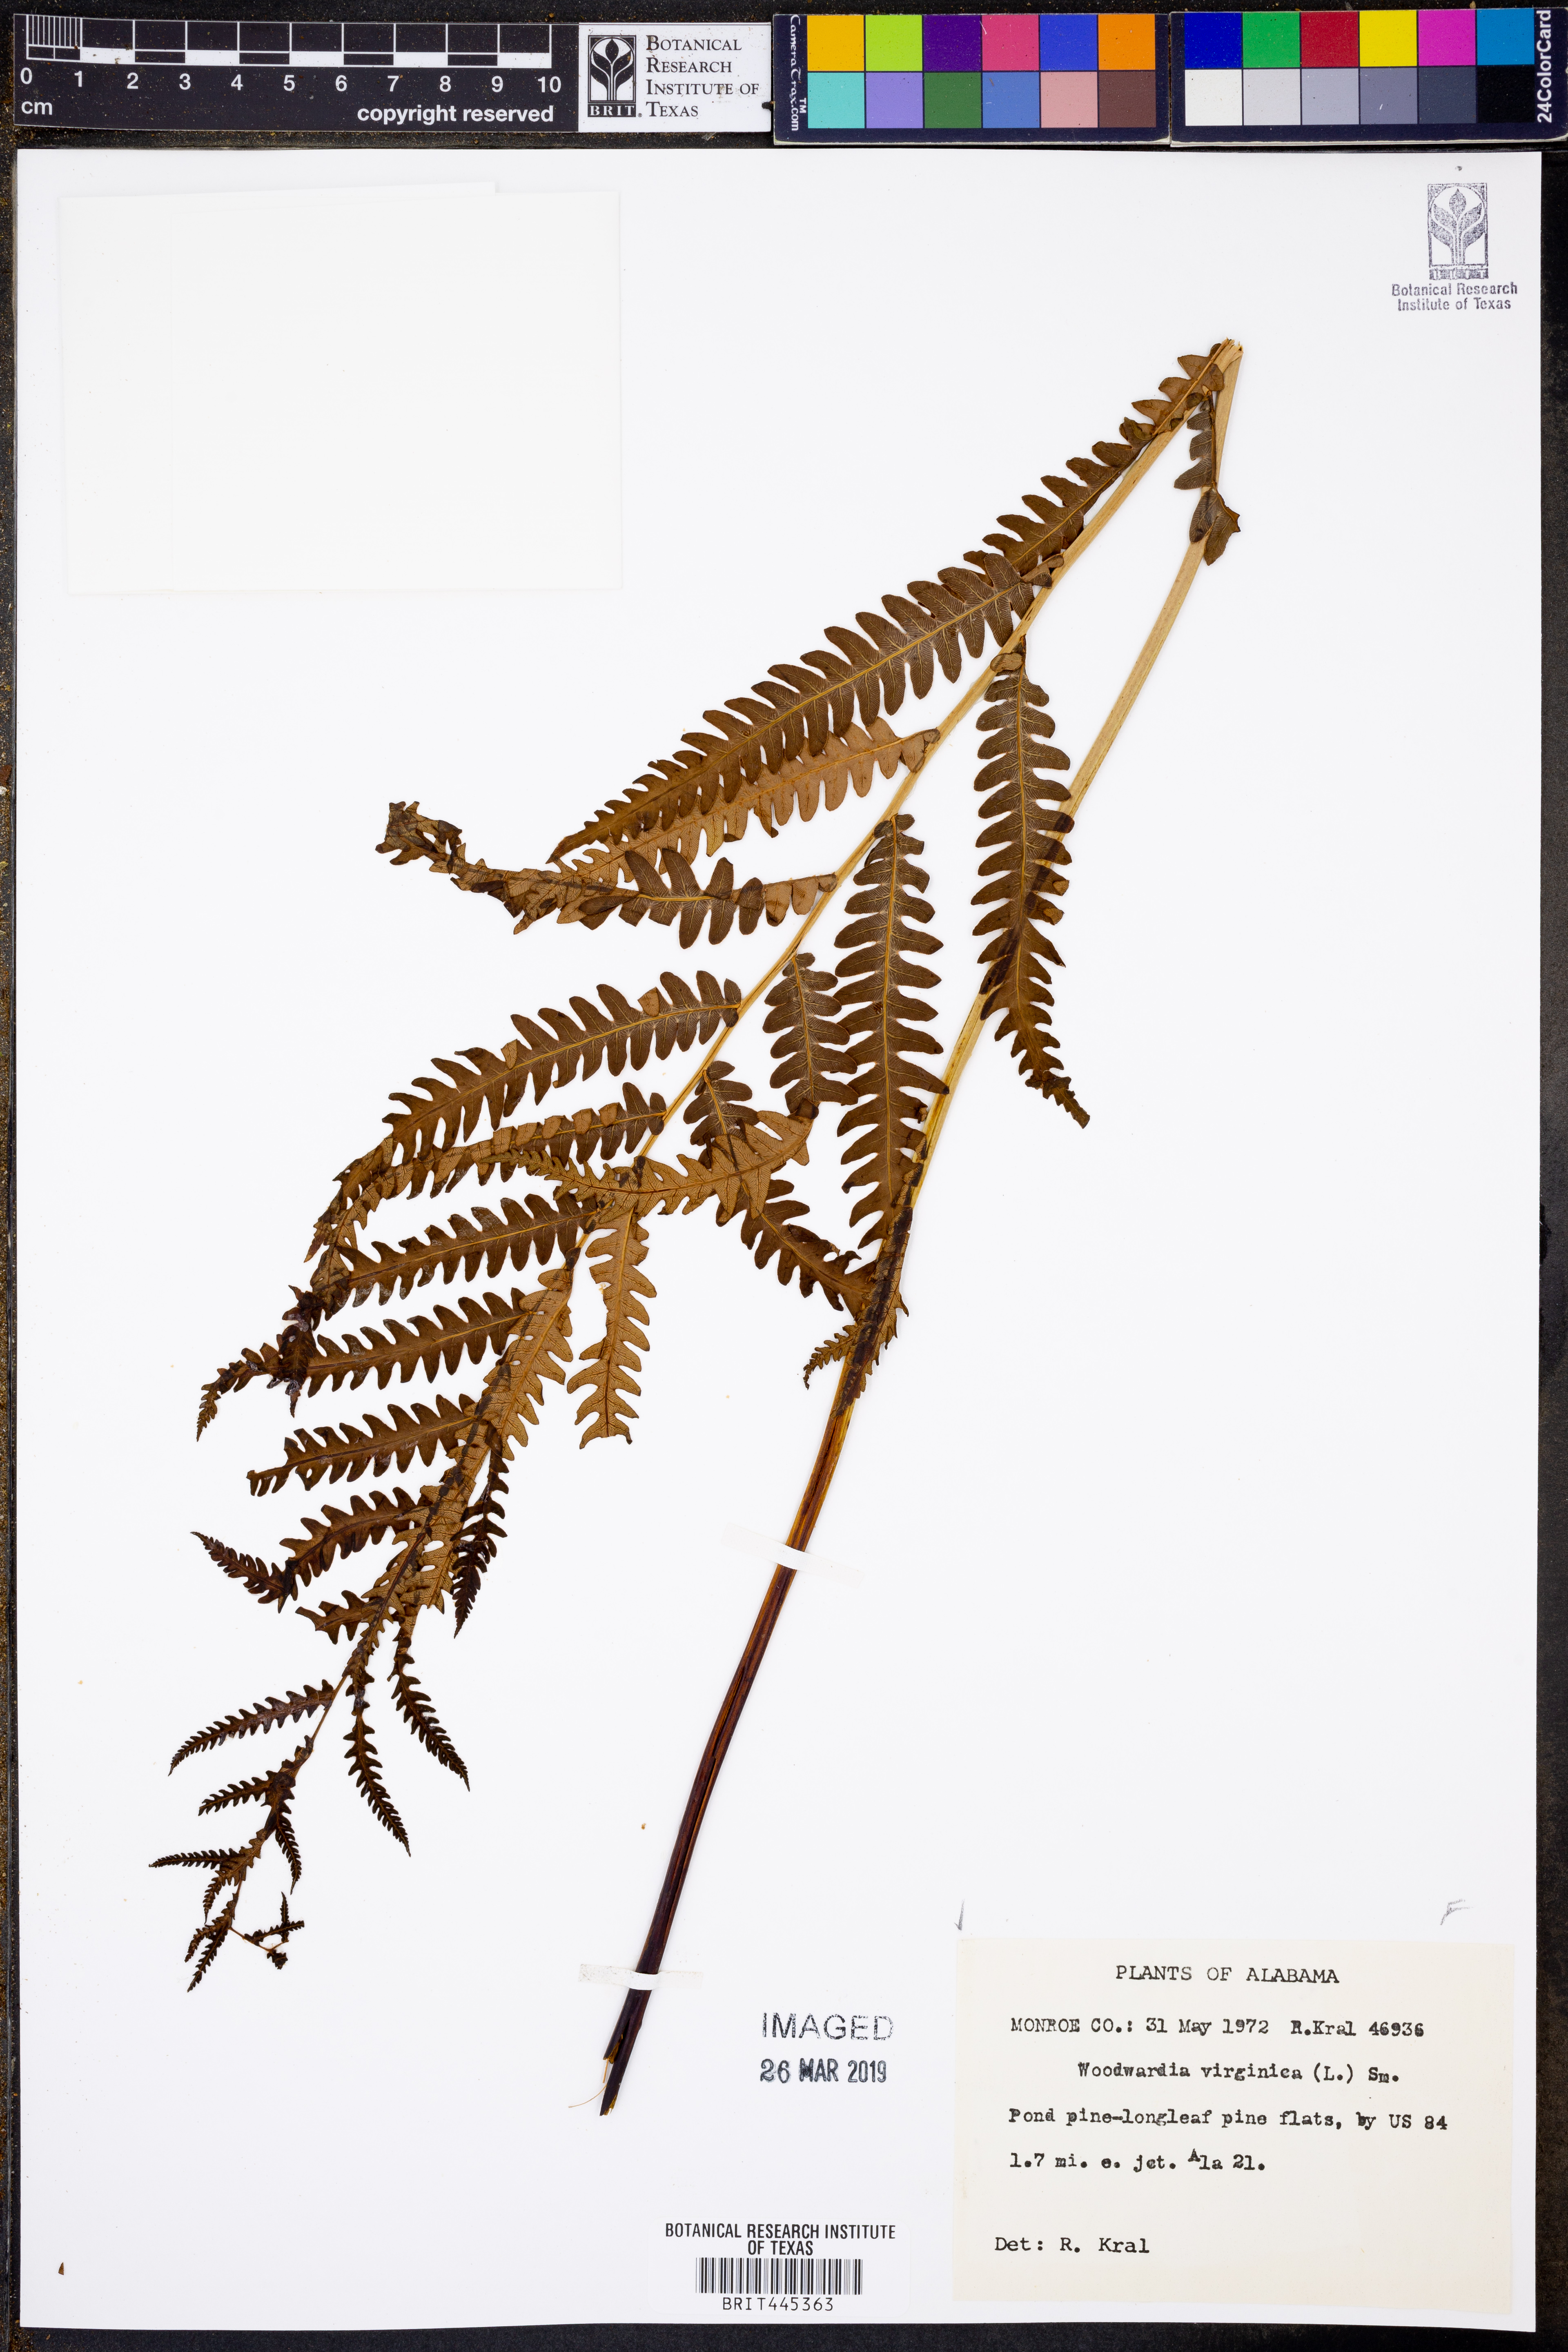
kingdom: Plantae
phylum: Tracheophyta
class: Polypodiopsida
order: Polypodiales
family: Blechnaceae
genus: Anchistea
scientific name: Anchistea virginica
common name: Virginia chain fern
